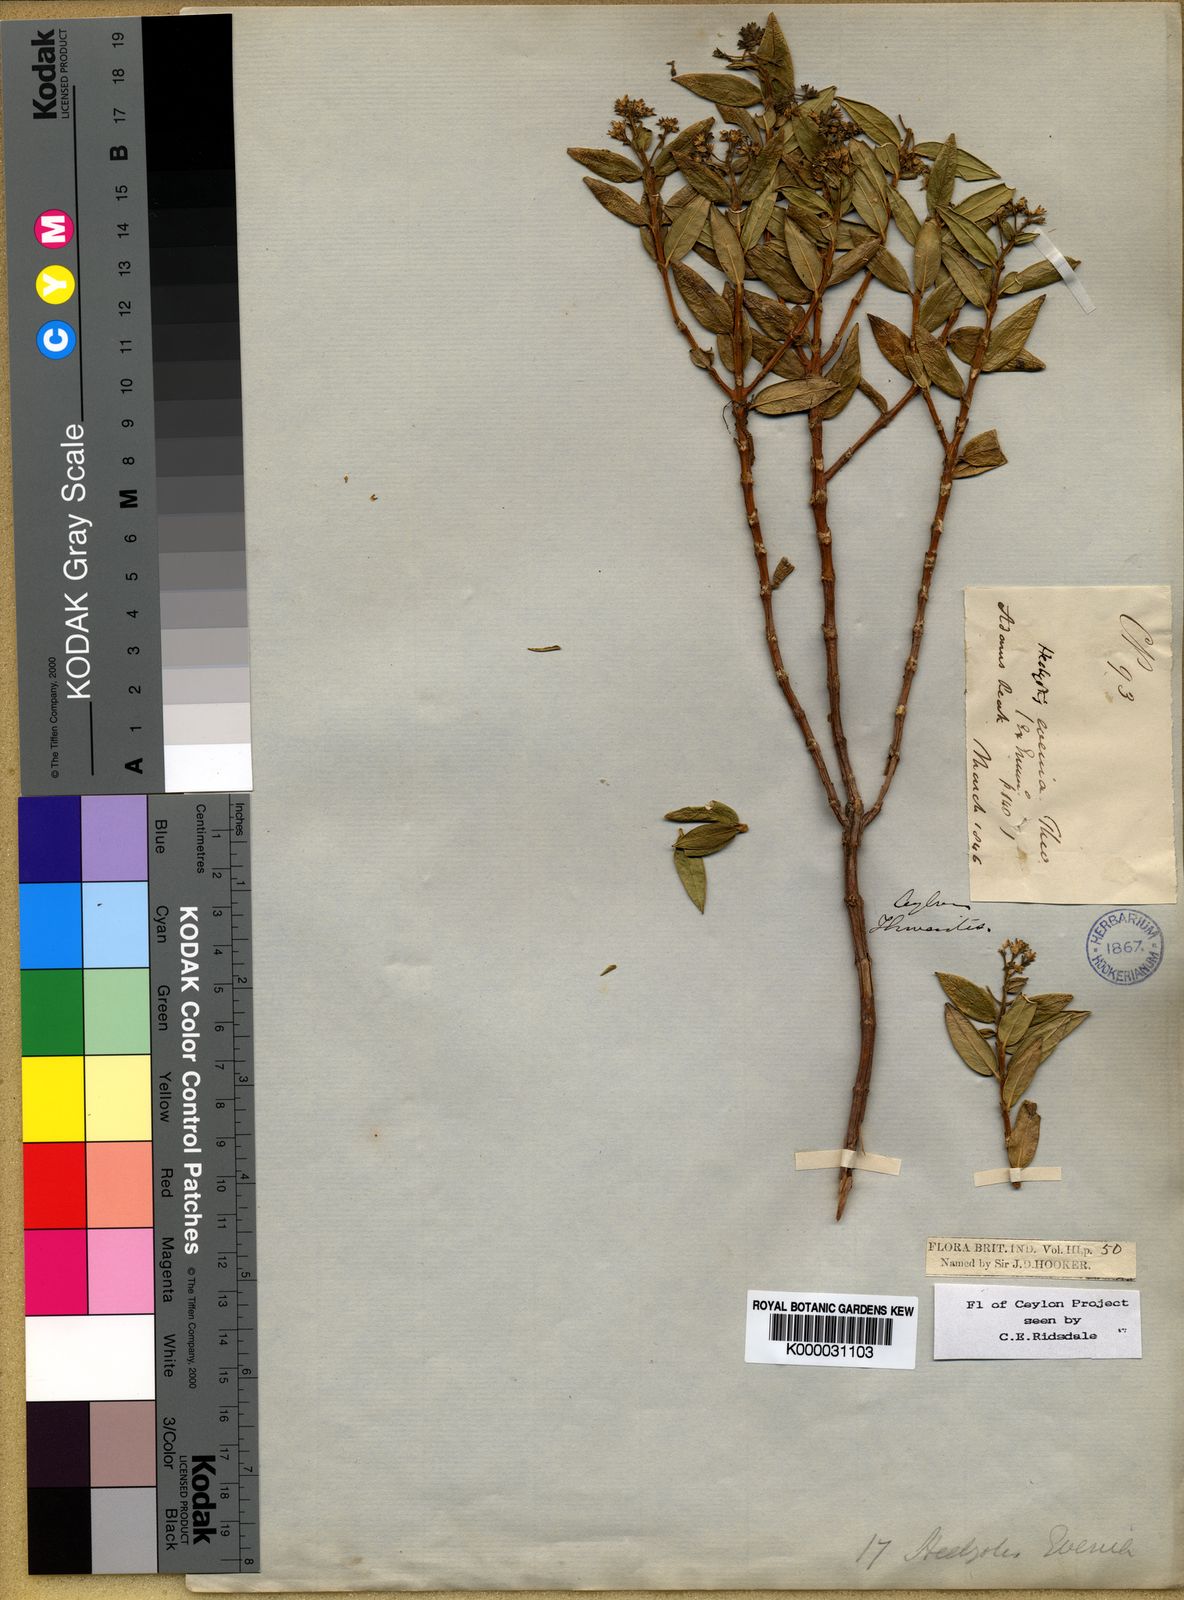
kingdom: Plantae
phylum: Tracheophyta
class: Magnoliopsida
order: Gentianales
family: Rubiaceae
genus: Hedyotis
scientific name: Hedyotis evenia
